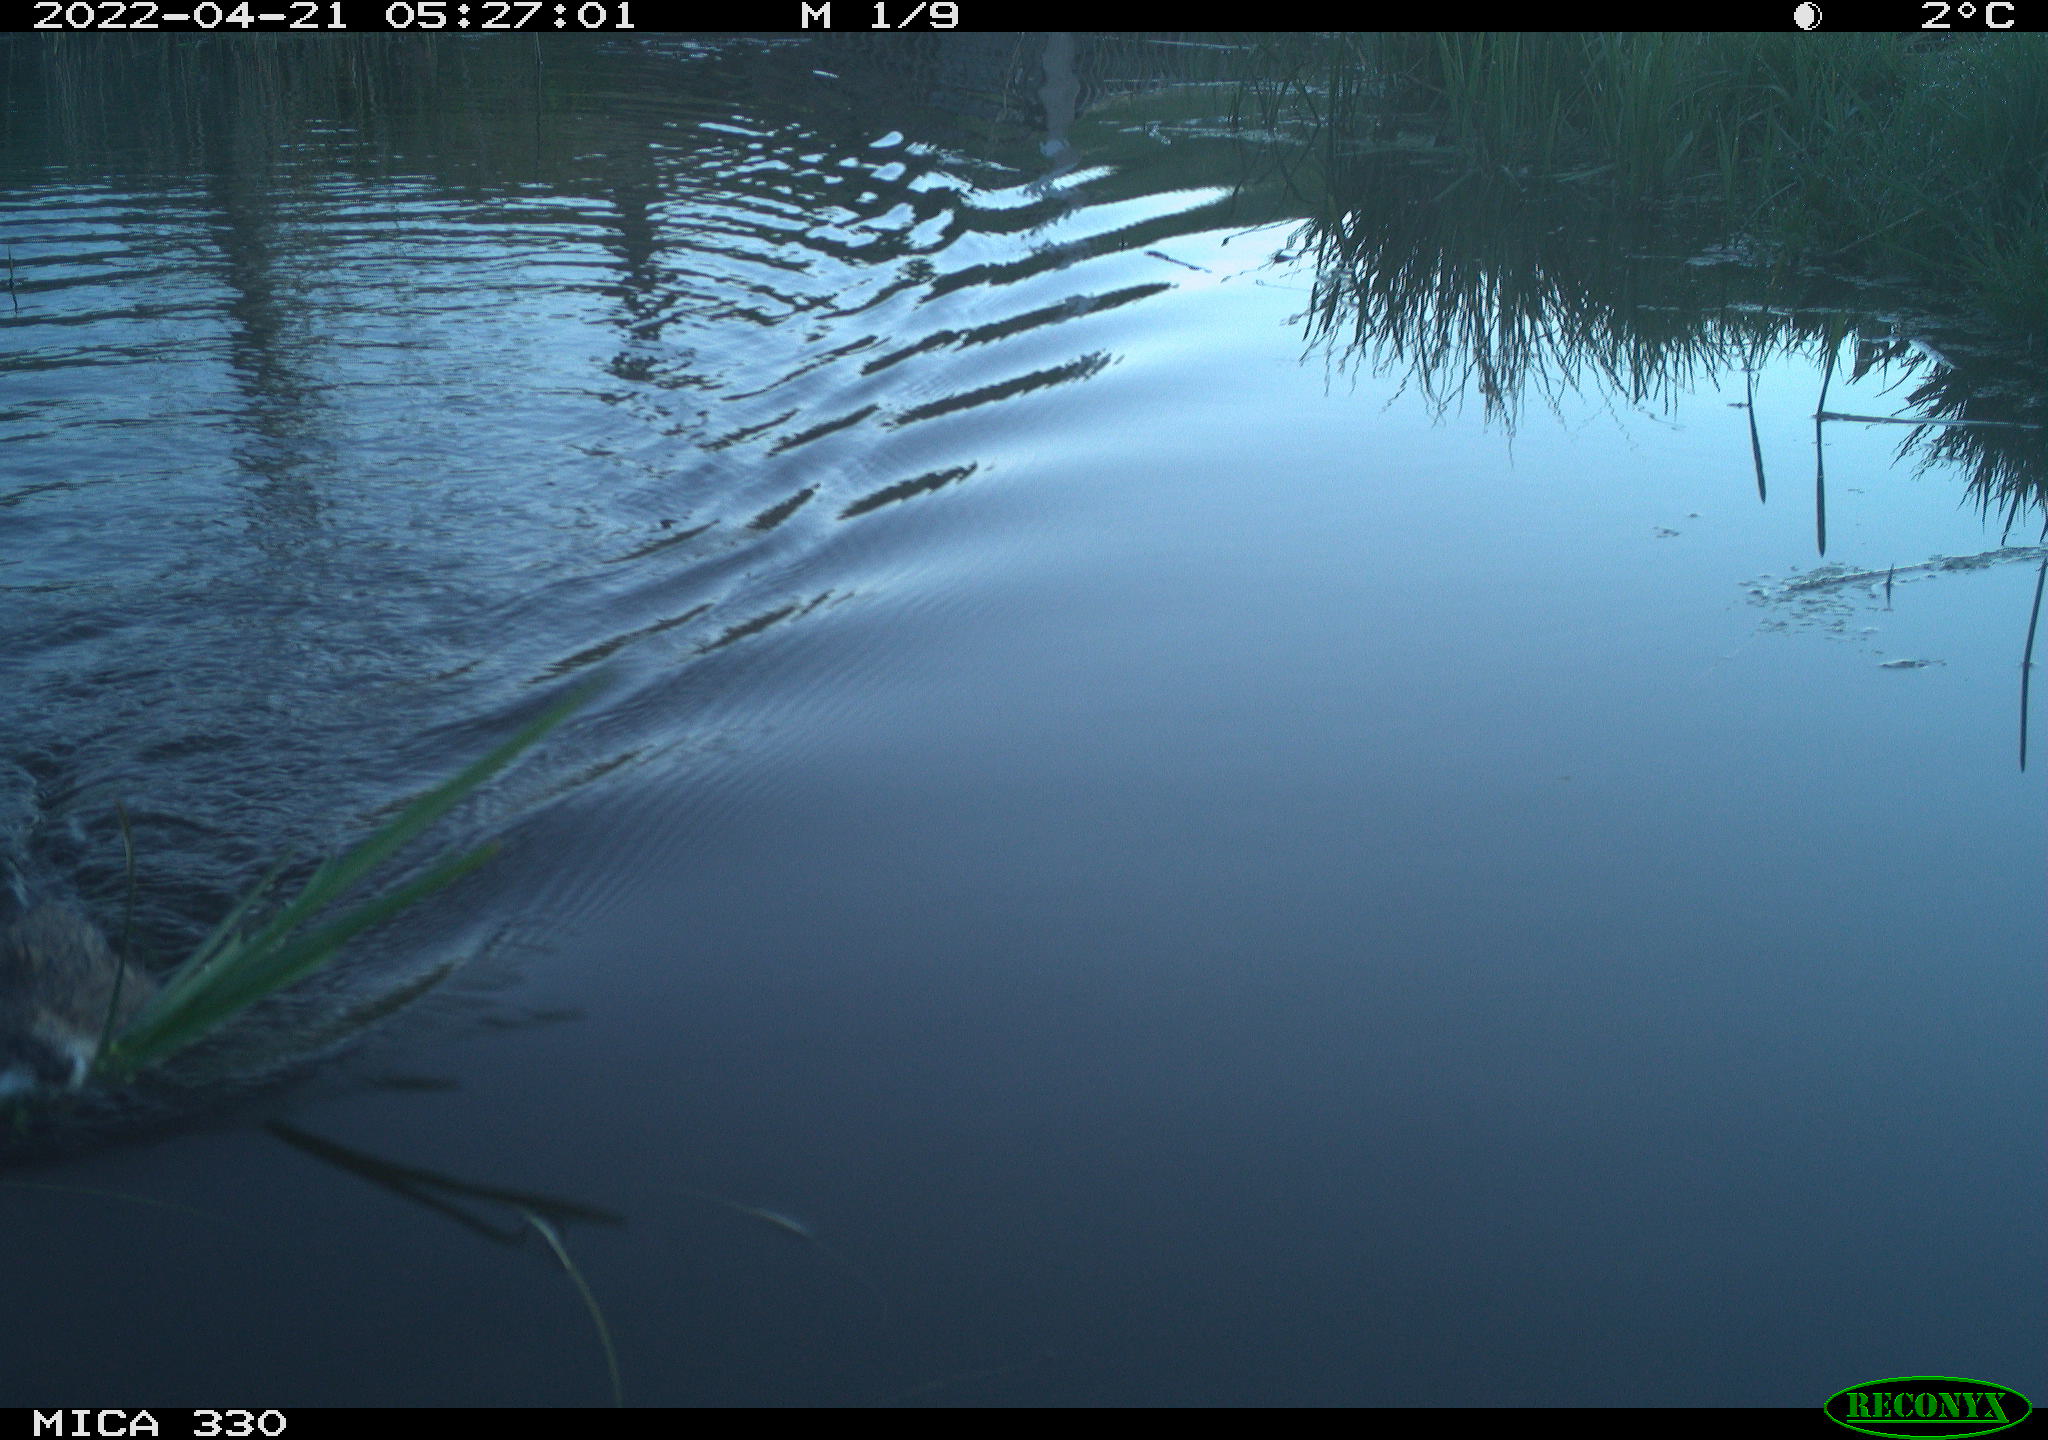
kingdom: Animalia
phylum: Chordata
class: Mammalia
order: Rodentia
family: Cricetidae
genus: Ondatra
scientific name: Ondatra zibethicus
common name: Muskrat
